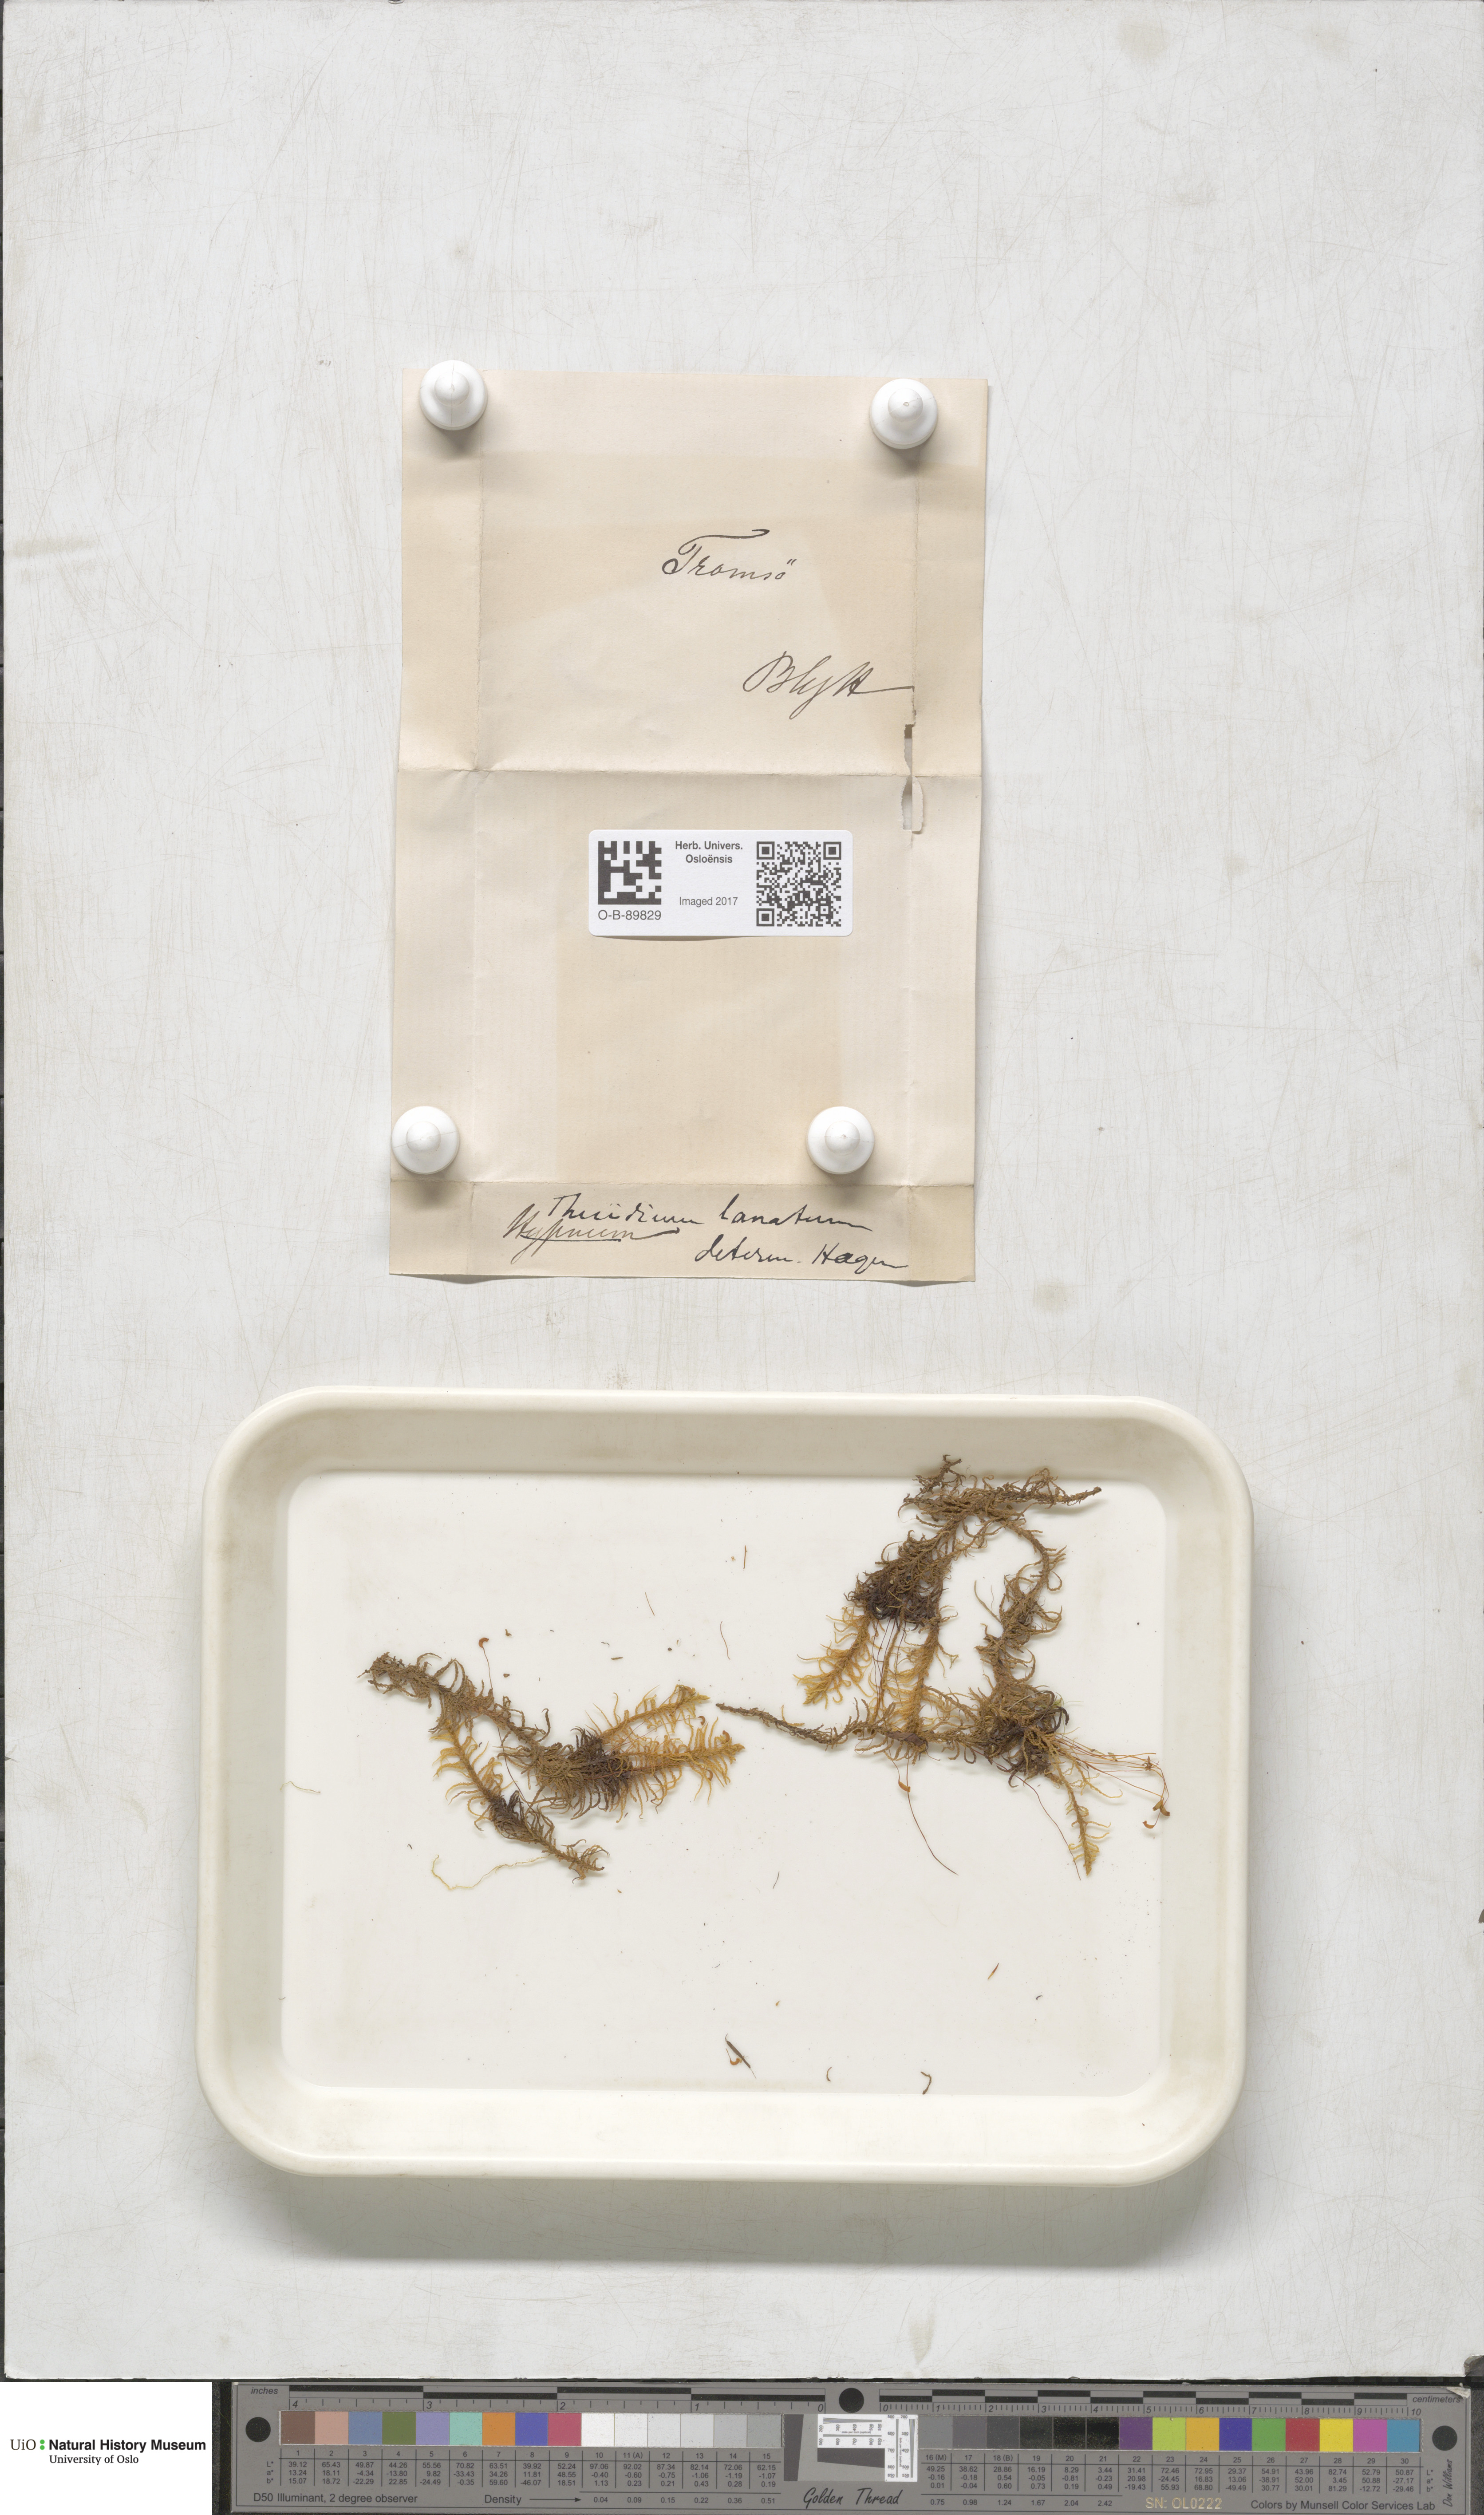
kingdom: Plantae
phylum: Bryophyta
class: Bryopsida
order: Hypnales
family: Helodiaceae
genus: Helodium
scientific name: Helodium blandowii
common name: Blandow's tamarisk-moss
